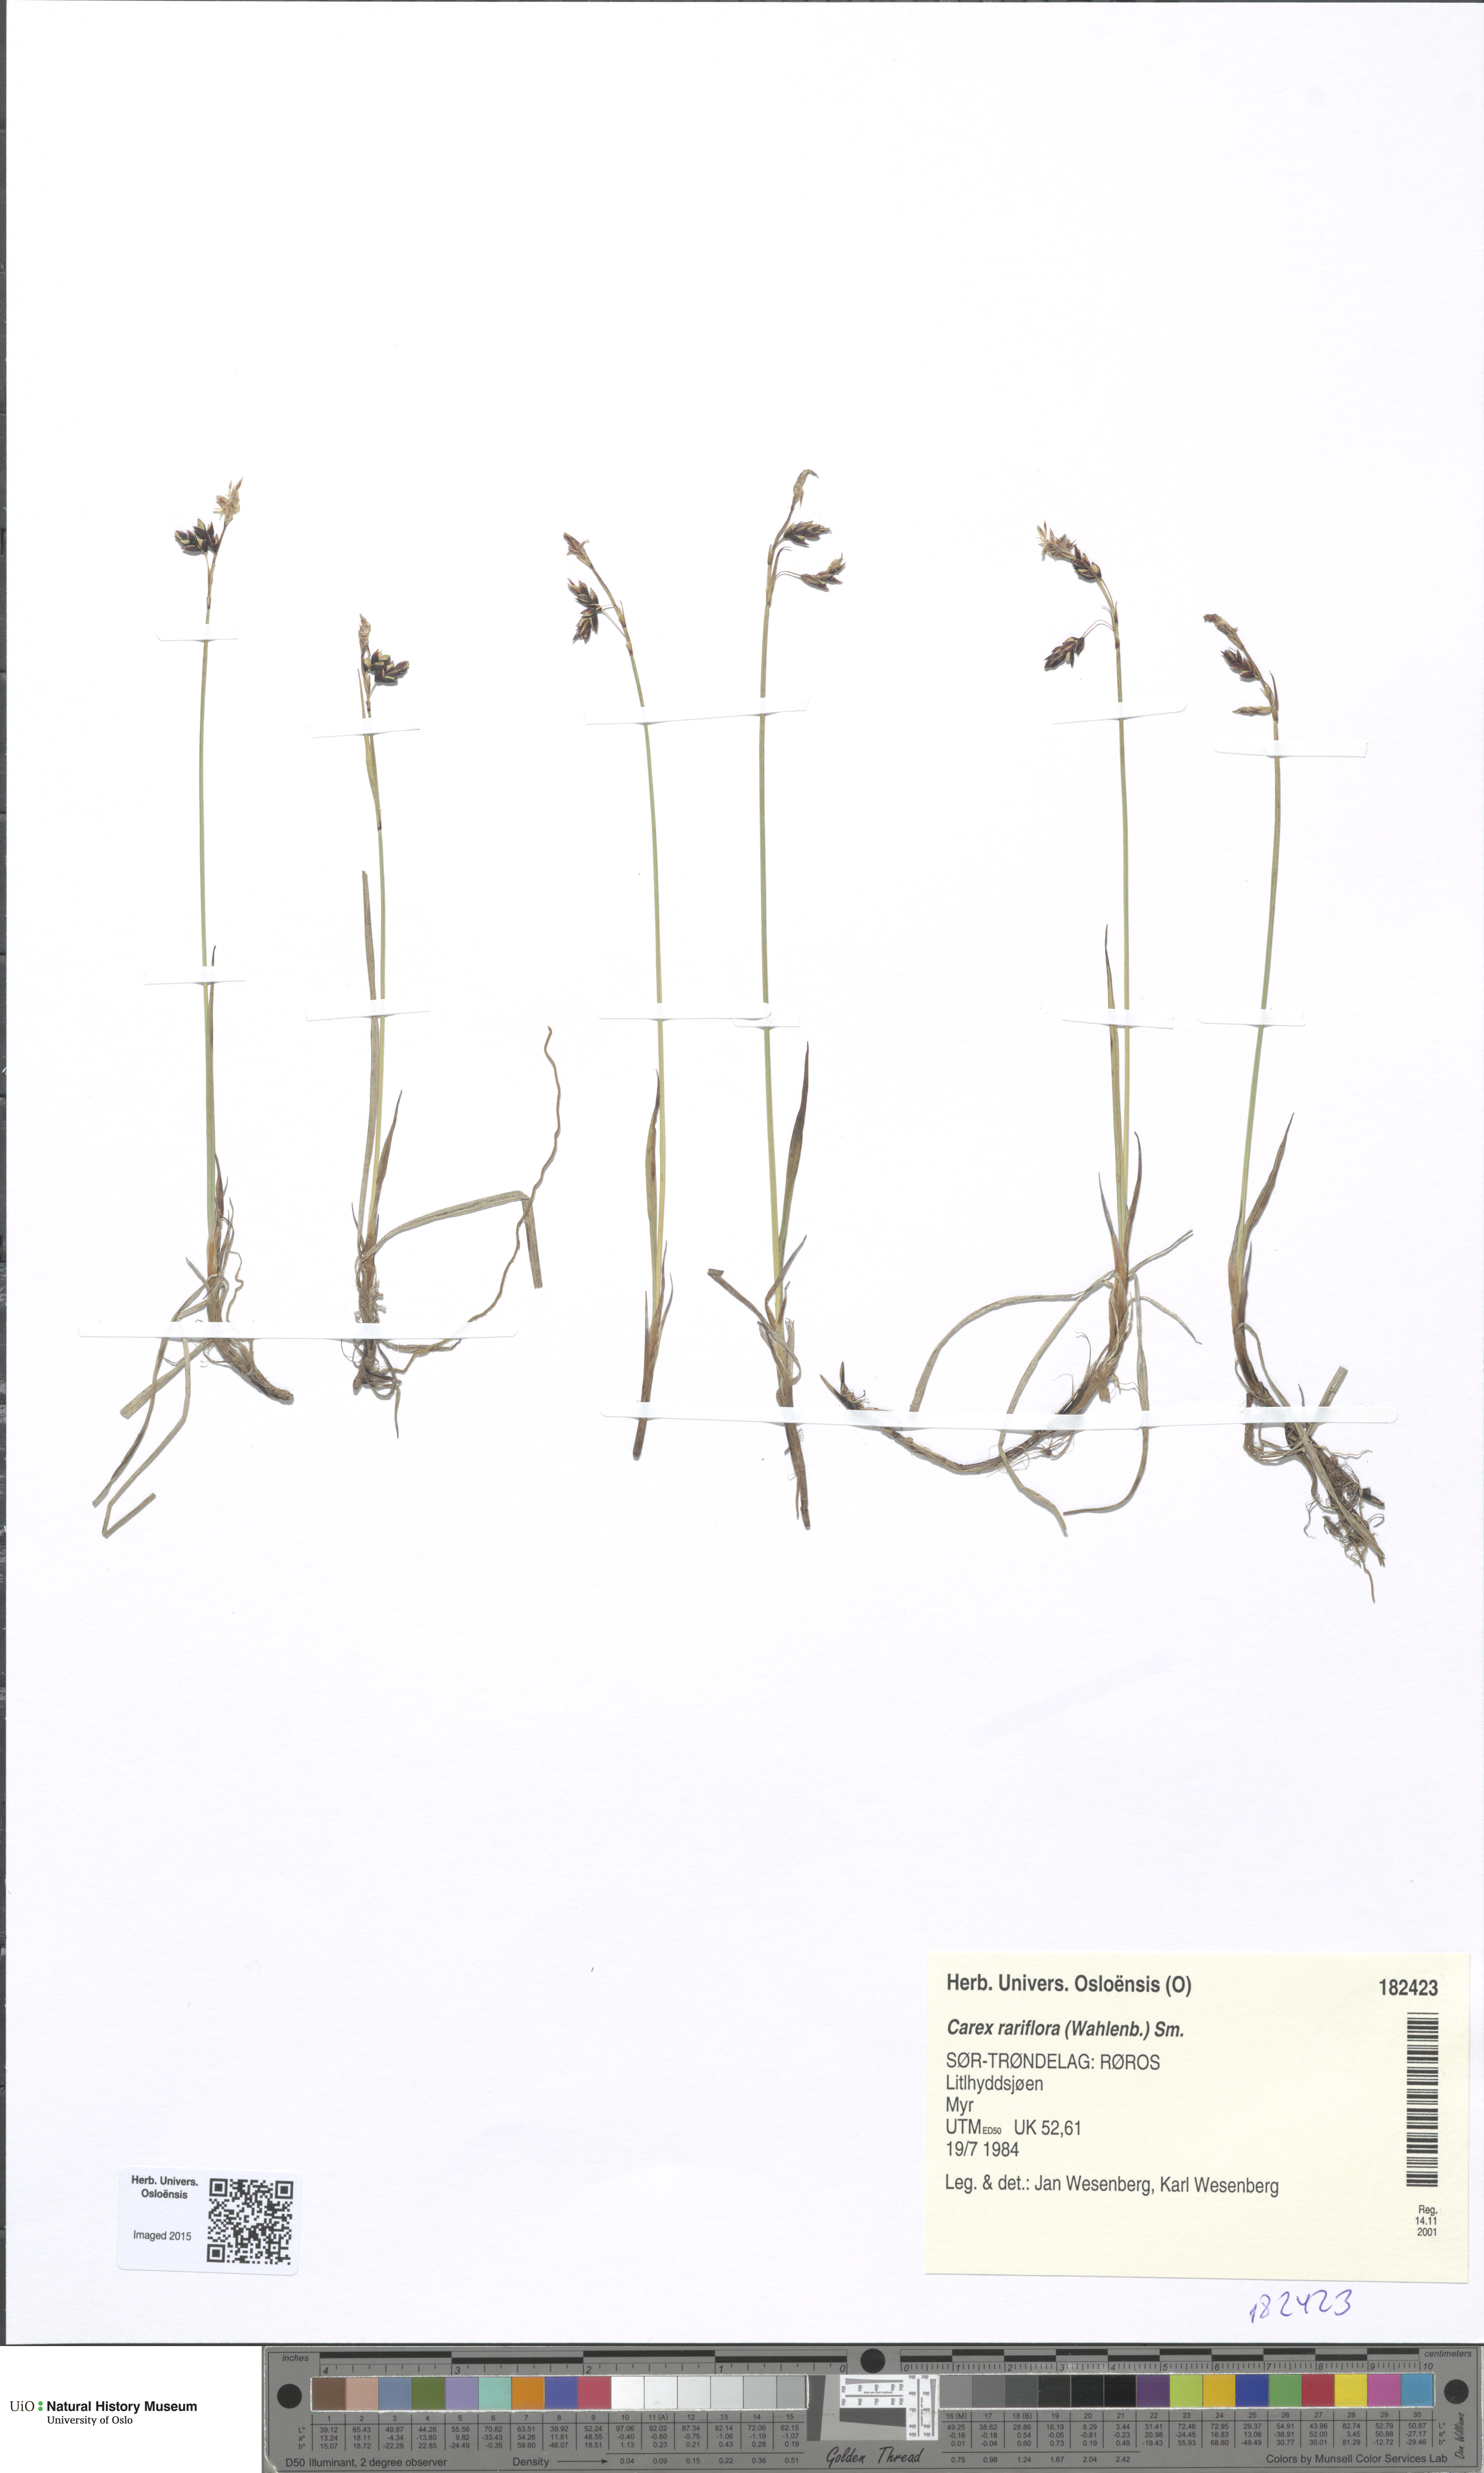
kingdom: Plantae
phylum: Tracheophyta
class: Liliopsida
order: Poales
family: Cyperaceae
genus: Carex
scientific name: Carex rariflora
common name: Loose-flowered alpine sedge
